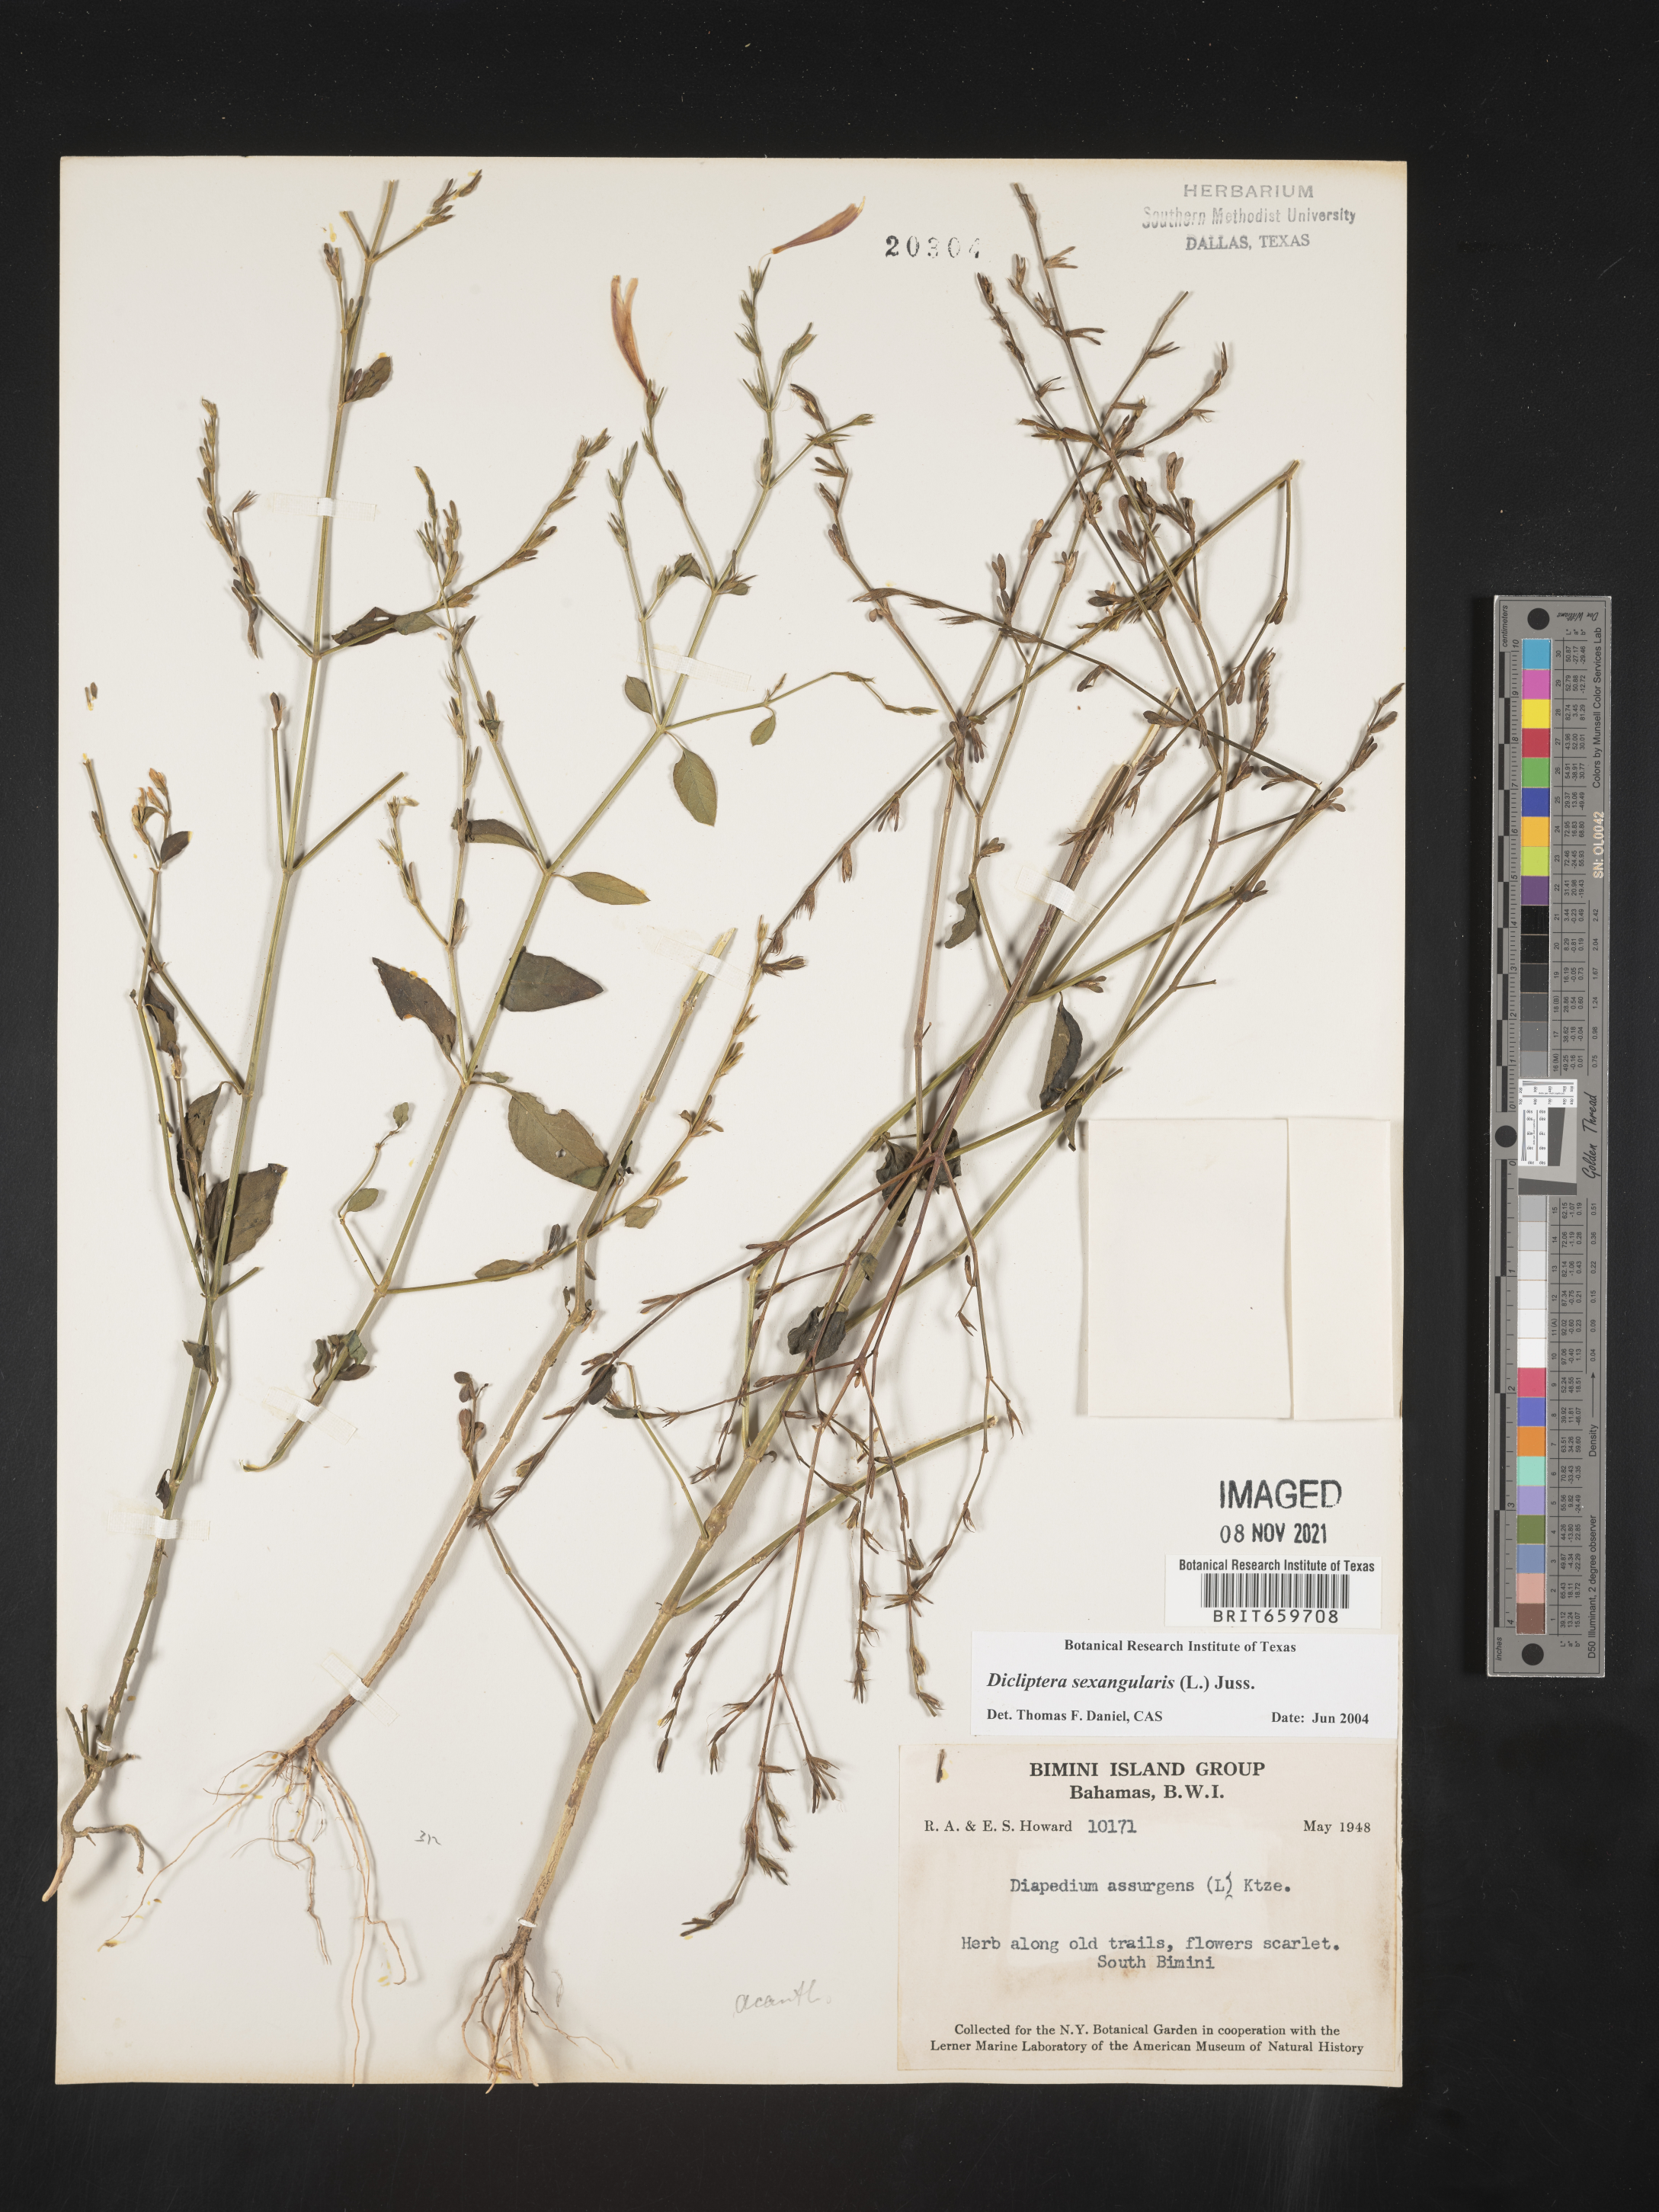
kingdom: Plantae
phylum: Tracheophyta
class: Magnoliopsida
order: Lamiales
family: Acanthaceae
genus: Dicliptera
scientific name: Dicliptera
